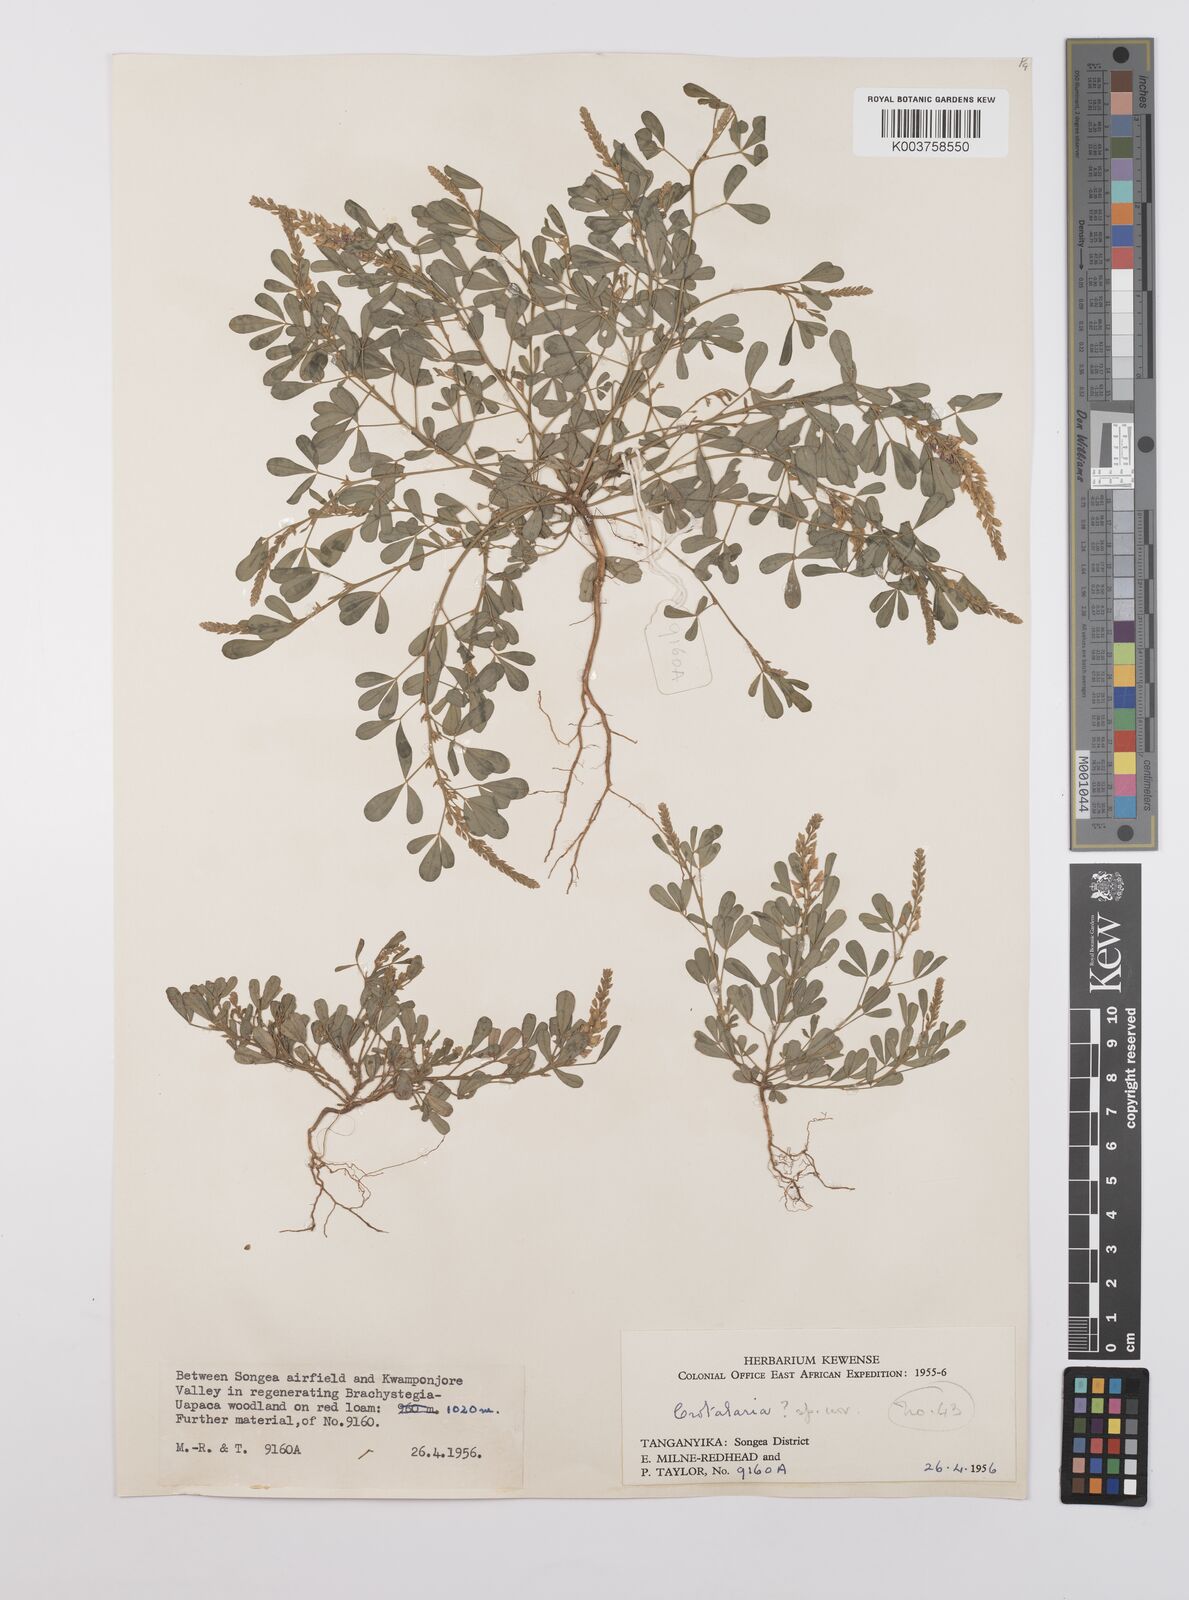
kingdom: Plantae
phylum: Tracheophyta
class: Magnoliopsida
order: Fabales
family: Fabaceae
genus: Crotalaria
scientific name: Crotalaria hyssopifolia
